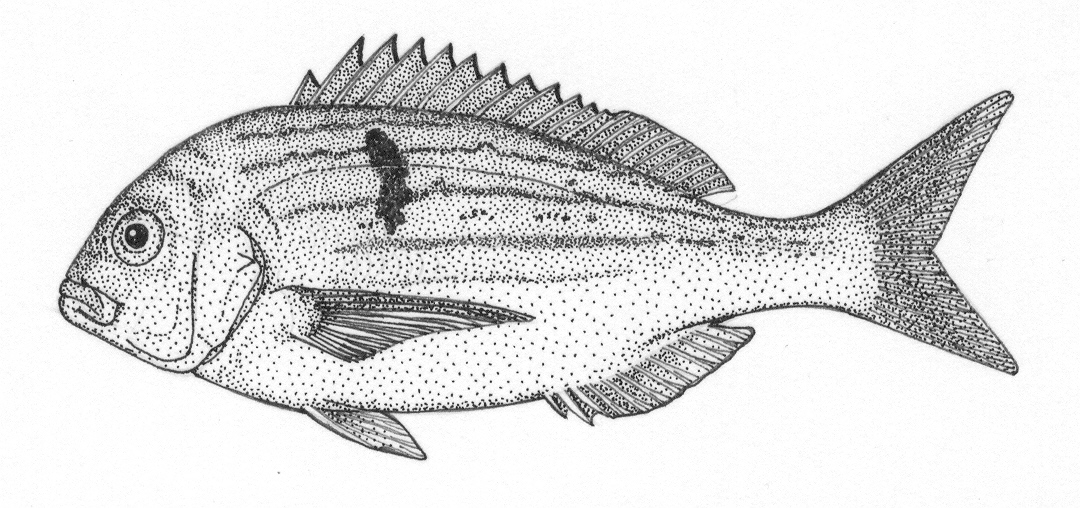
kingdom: Animalia
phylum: Chordata
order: Perciformes
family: Sparidae
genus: Polysteganus
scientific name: Polysteganus undulosus
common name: Seventy-four seabream
